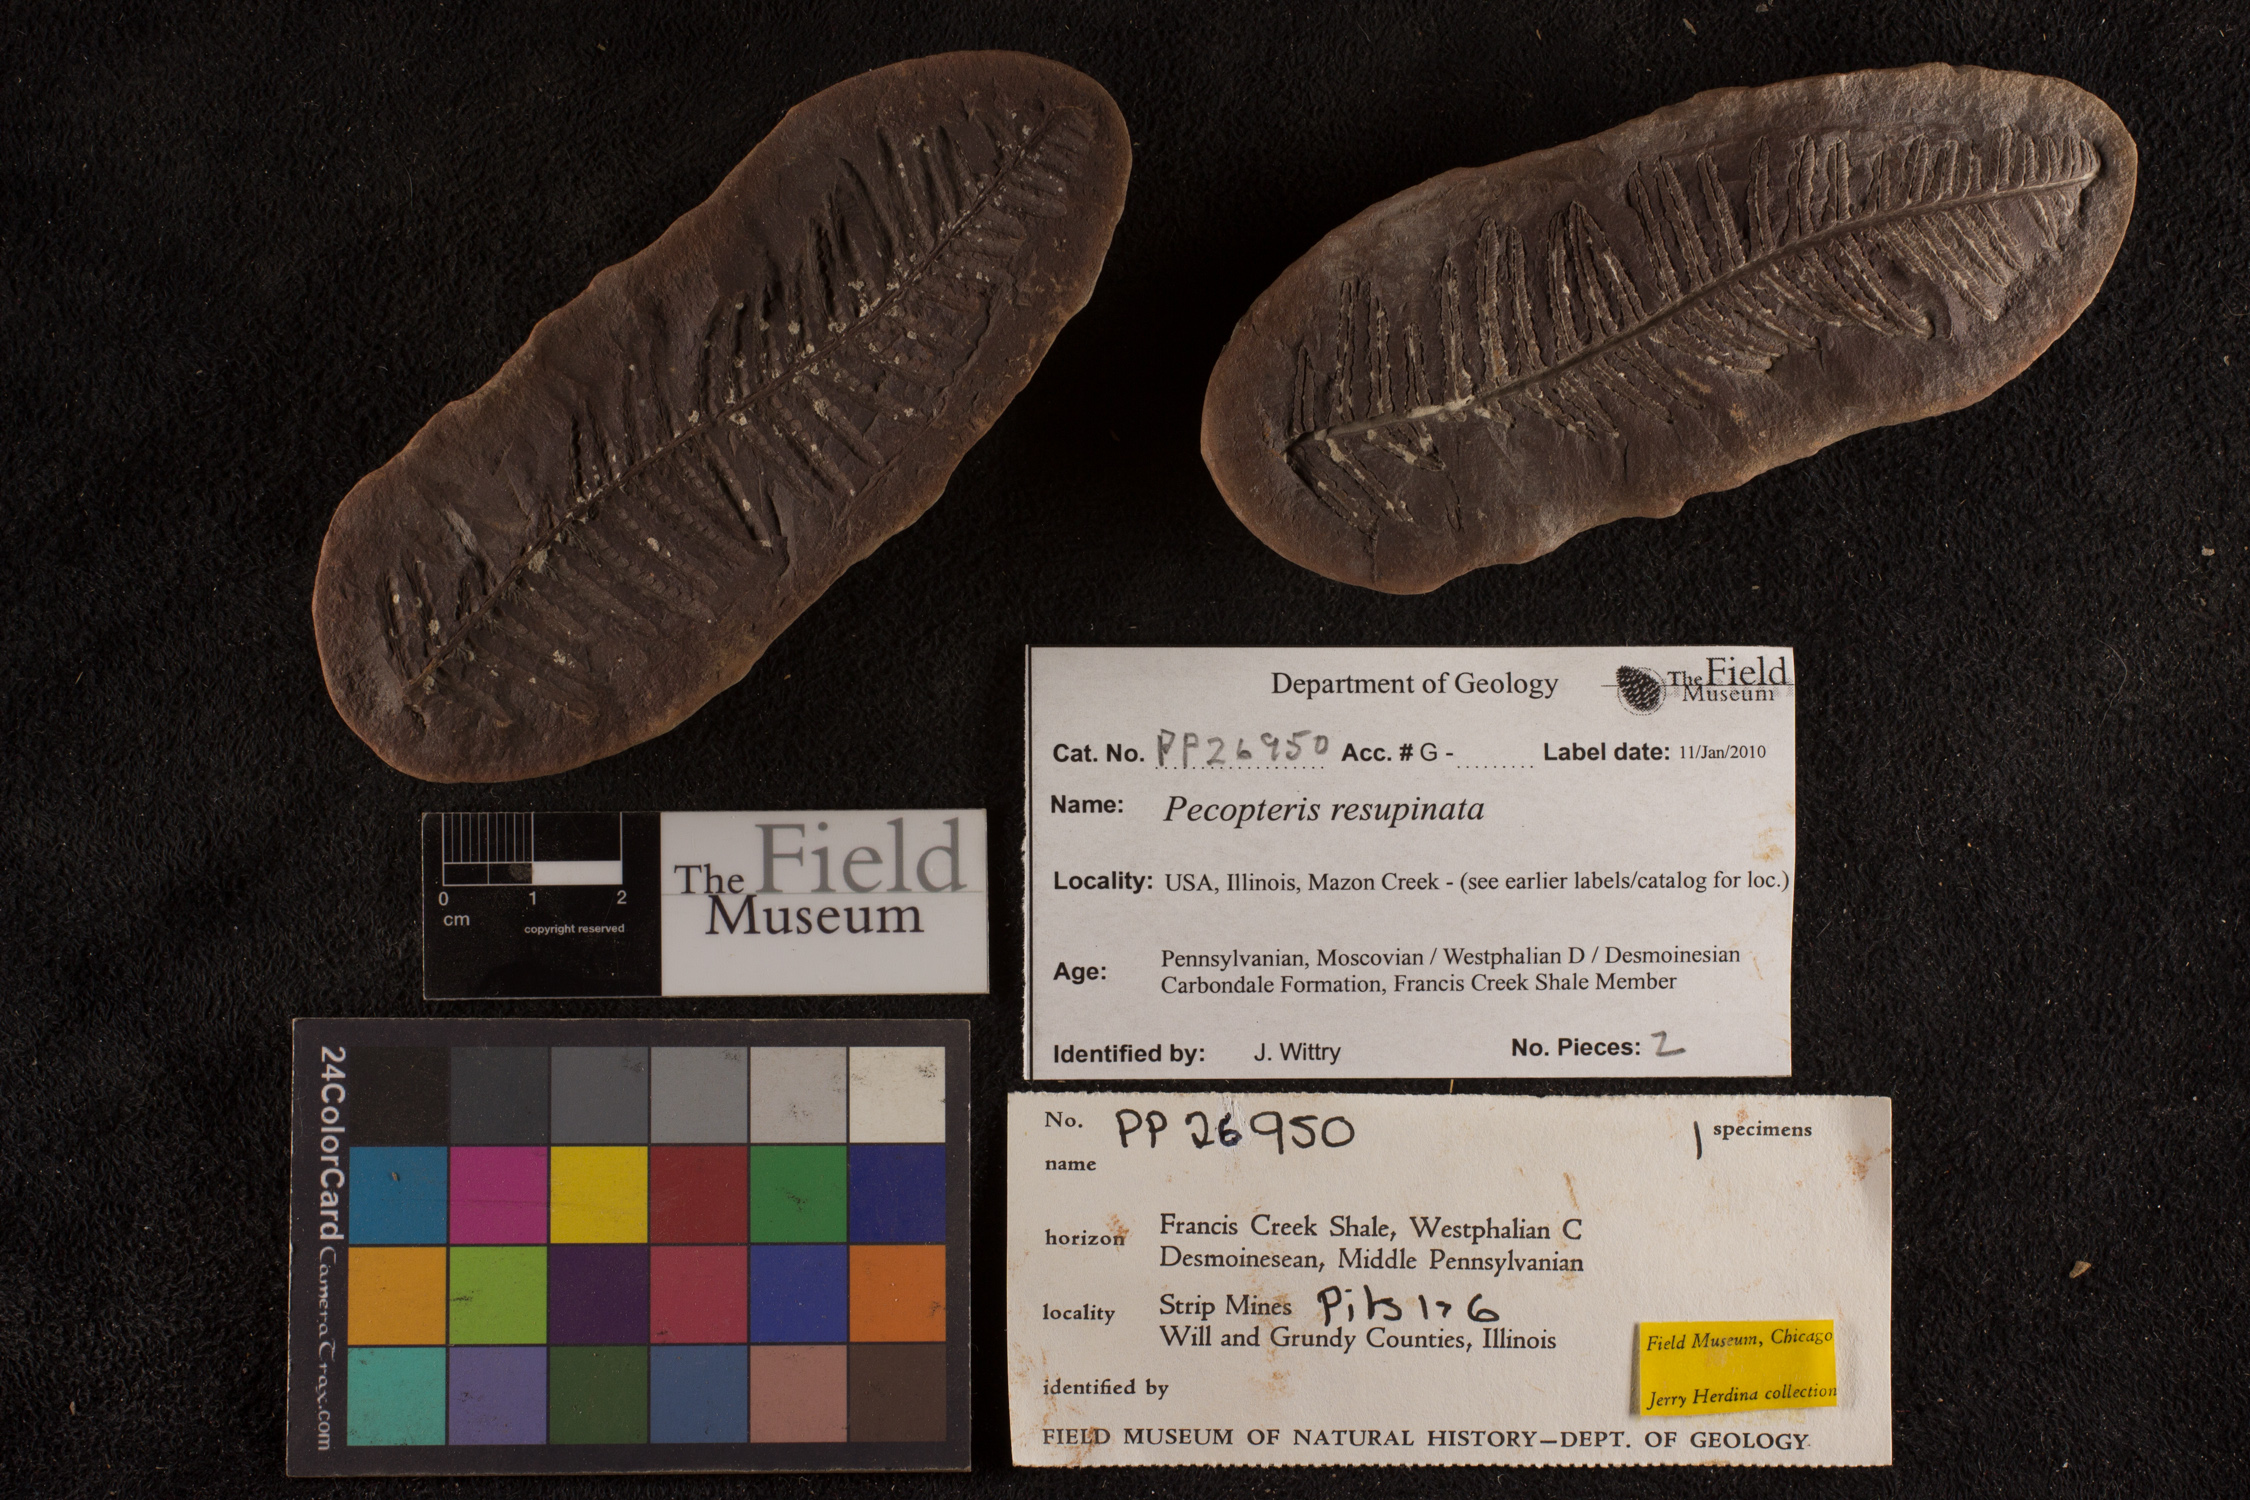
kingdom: Plantae
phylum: Tracheophyta
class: Polypodiopsida
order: Marattiales
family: Asterothecaceae
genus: Pecopteris
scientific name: Pecopteris
